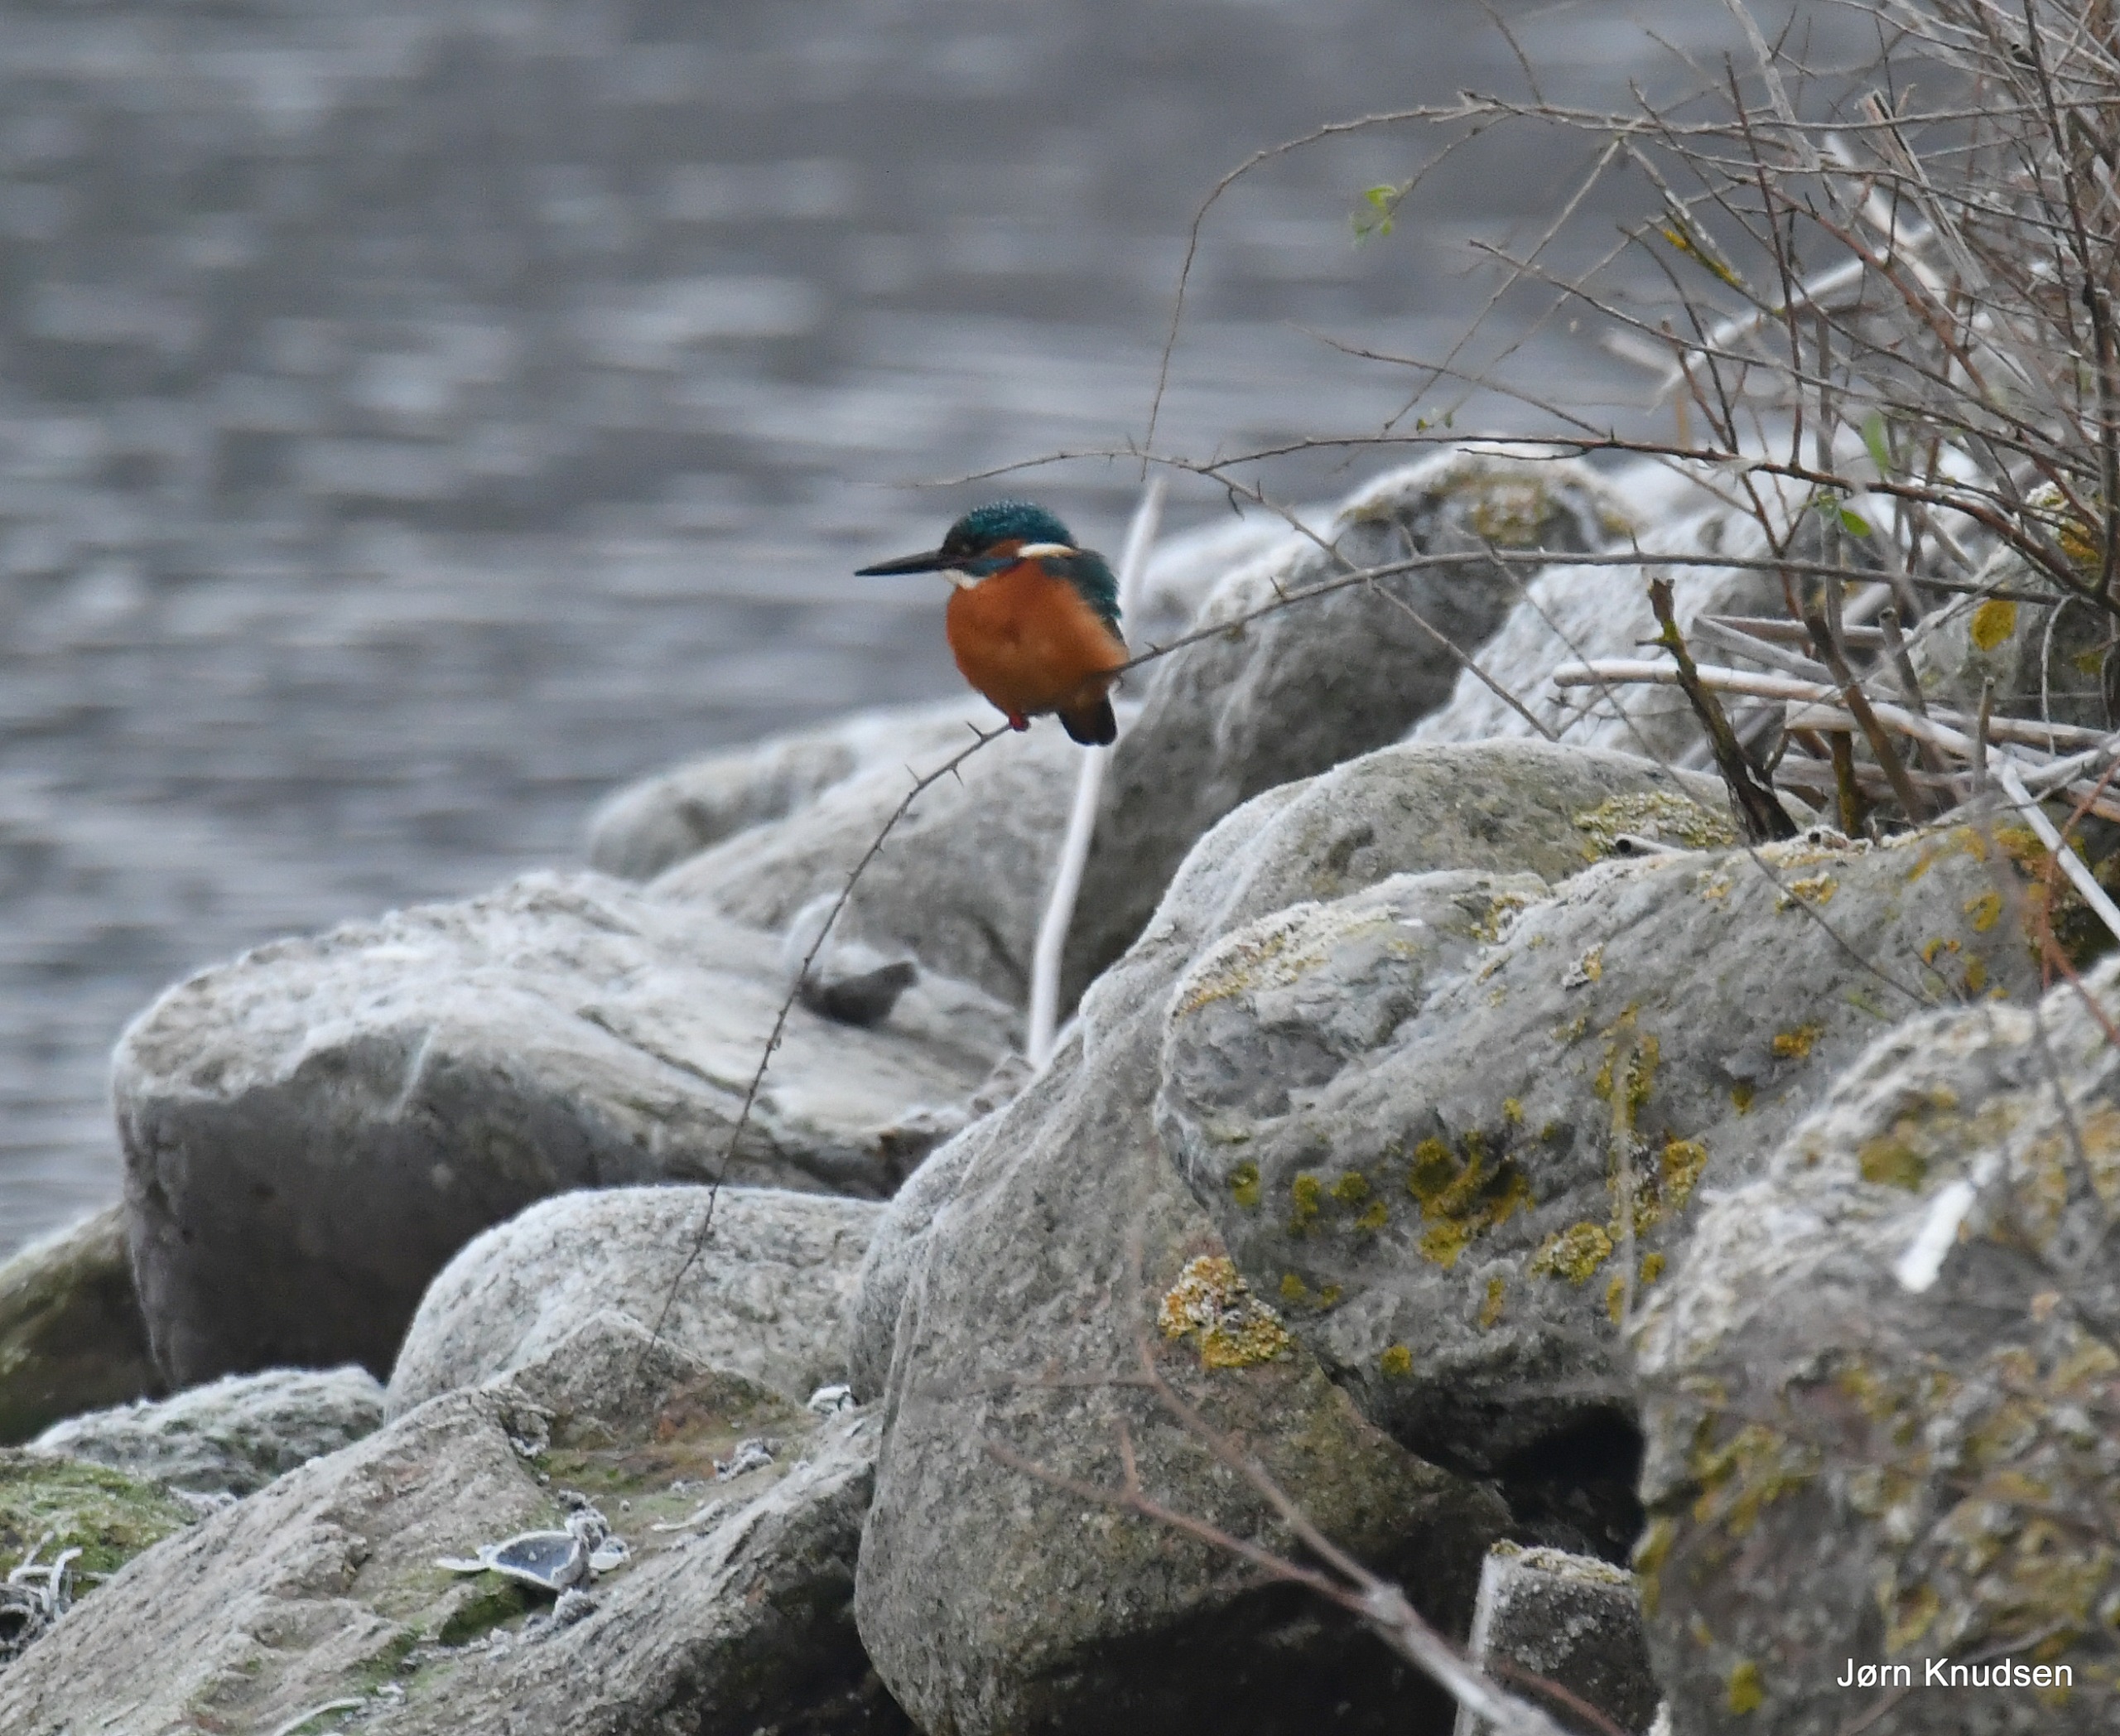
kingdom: Animalia
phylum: Chordata
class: Aves
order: Coraciiformes
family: Alcedinidae
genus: Alcedo
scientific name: Alcedo atthis
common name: Isfugl
